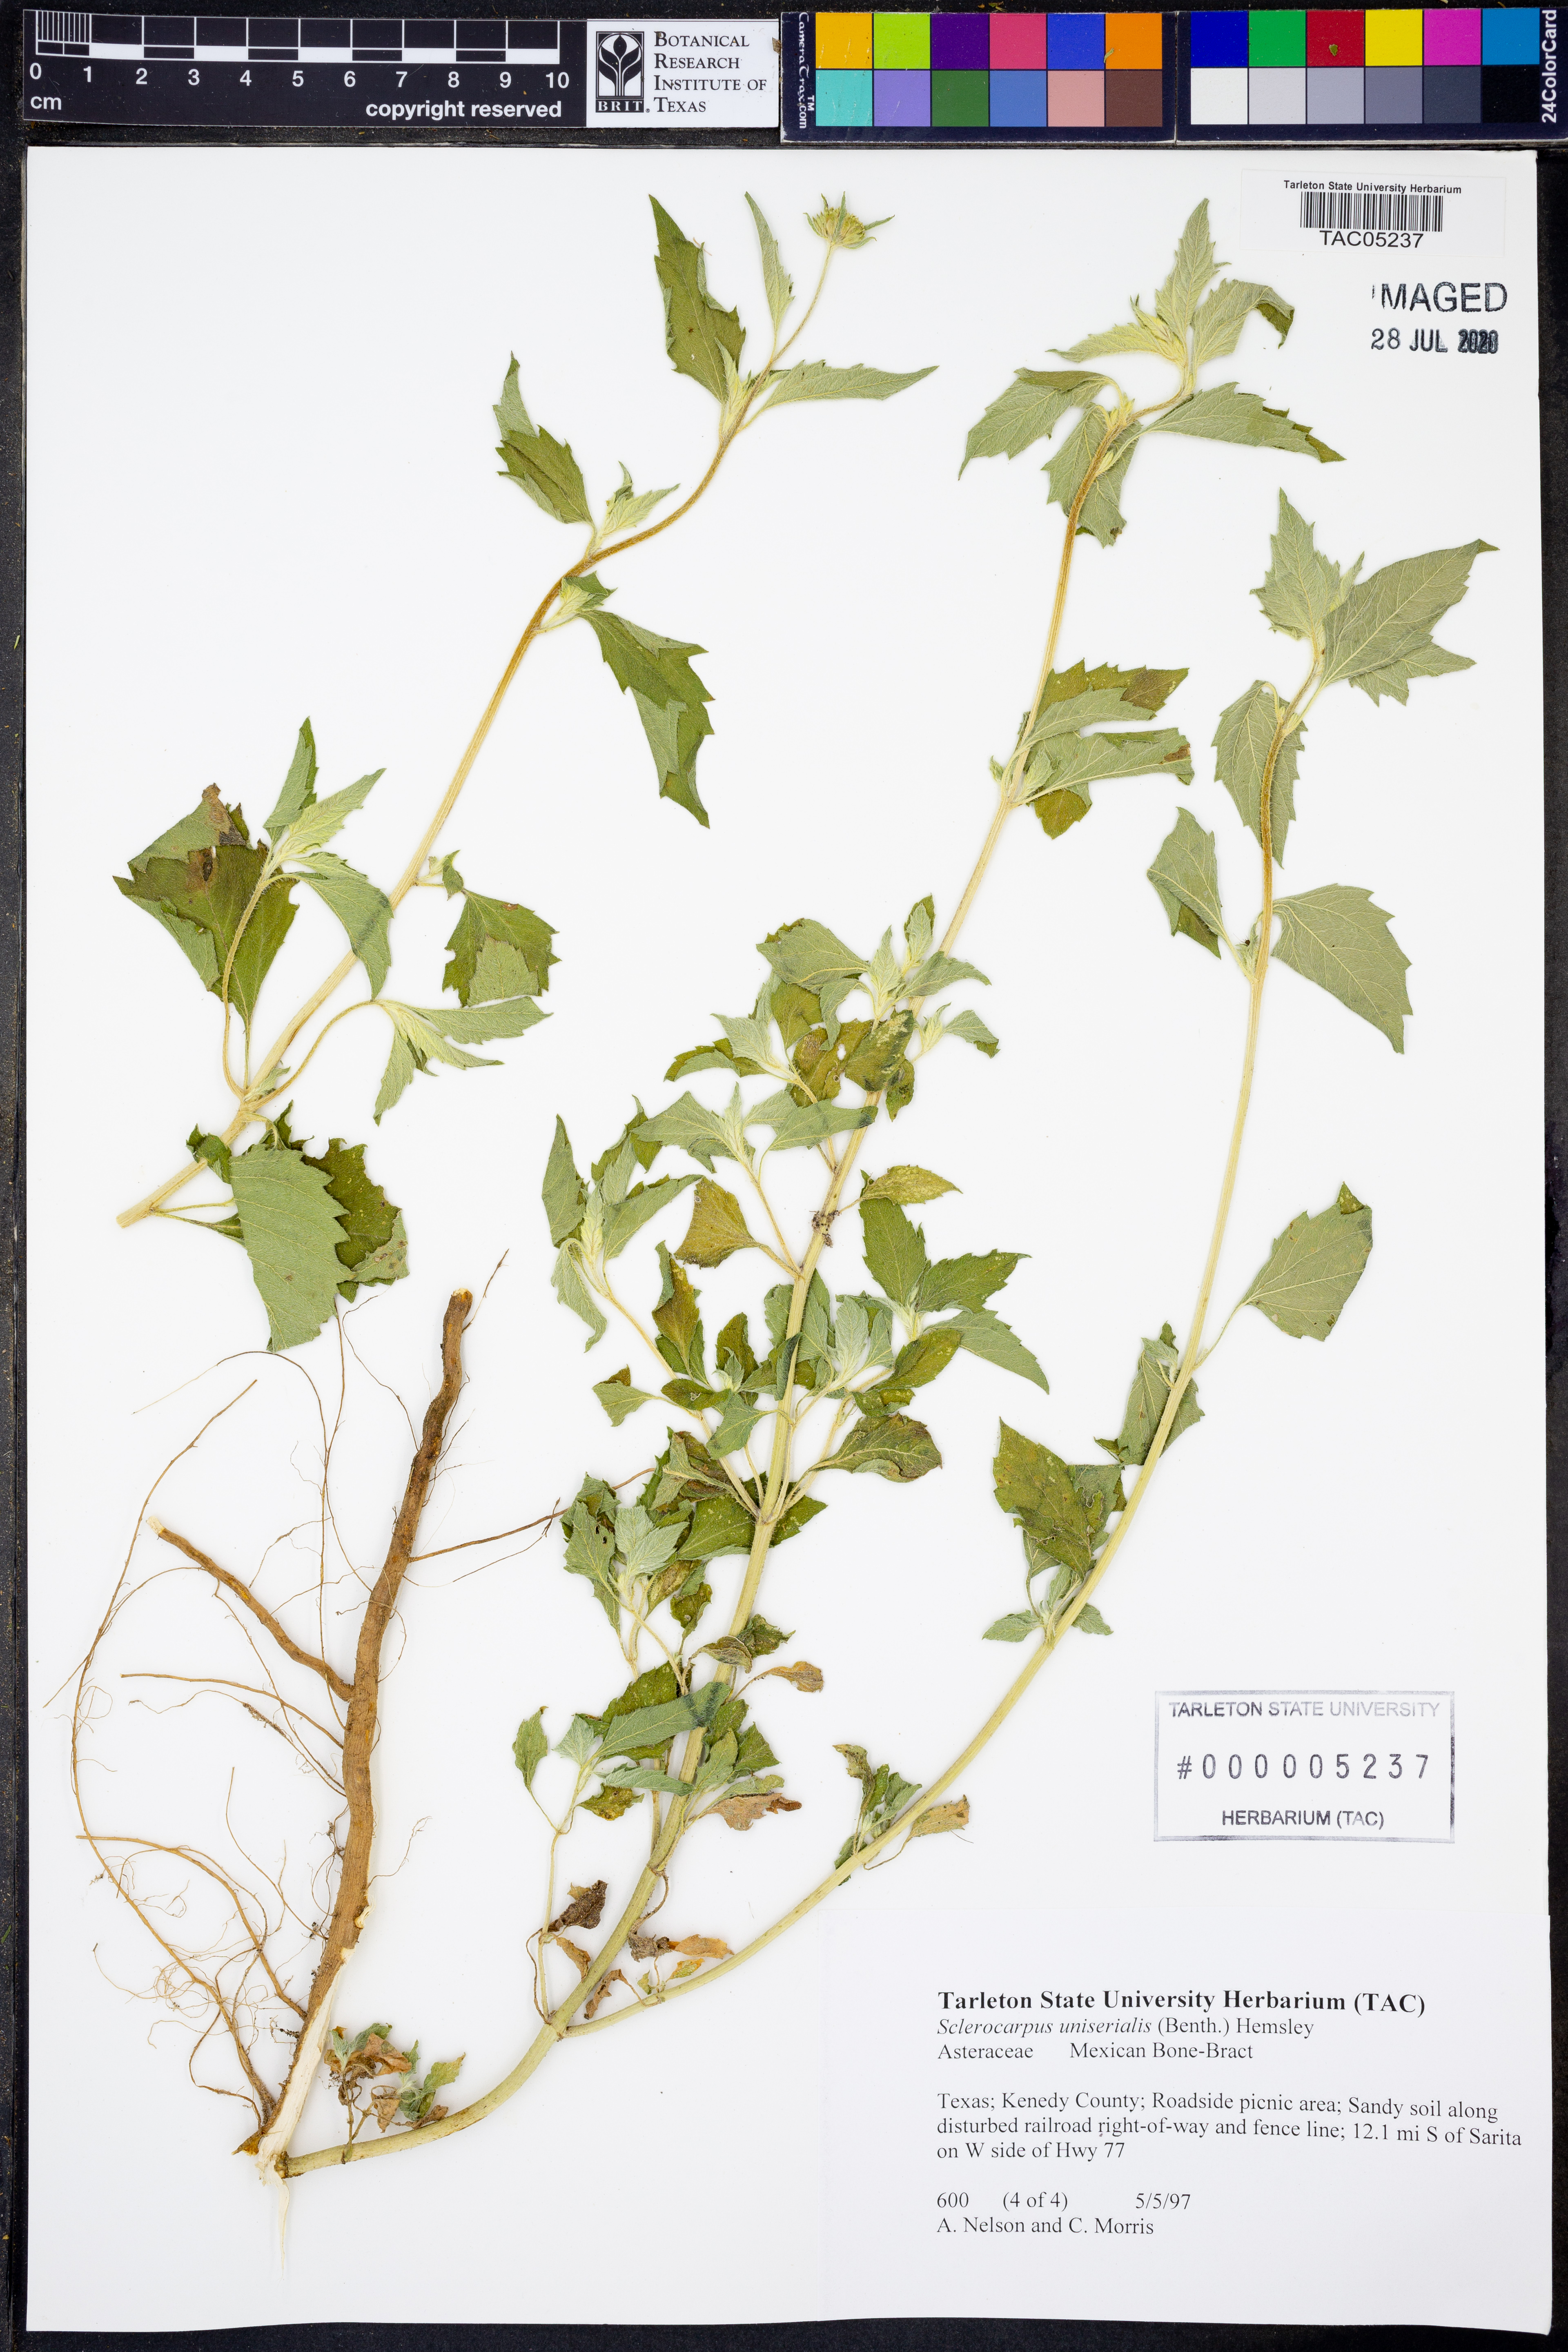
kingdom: Plantae
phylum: Tracheophyta
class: Magnoliopsida
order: Asterales
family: Asteraceae
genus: Sclerocarpus
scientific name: Sclerocarpus uniserialis
